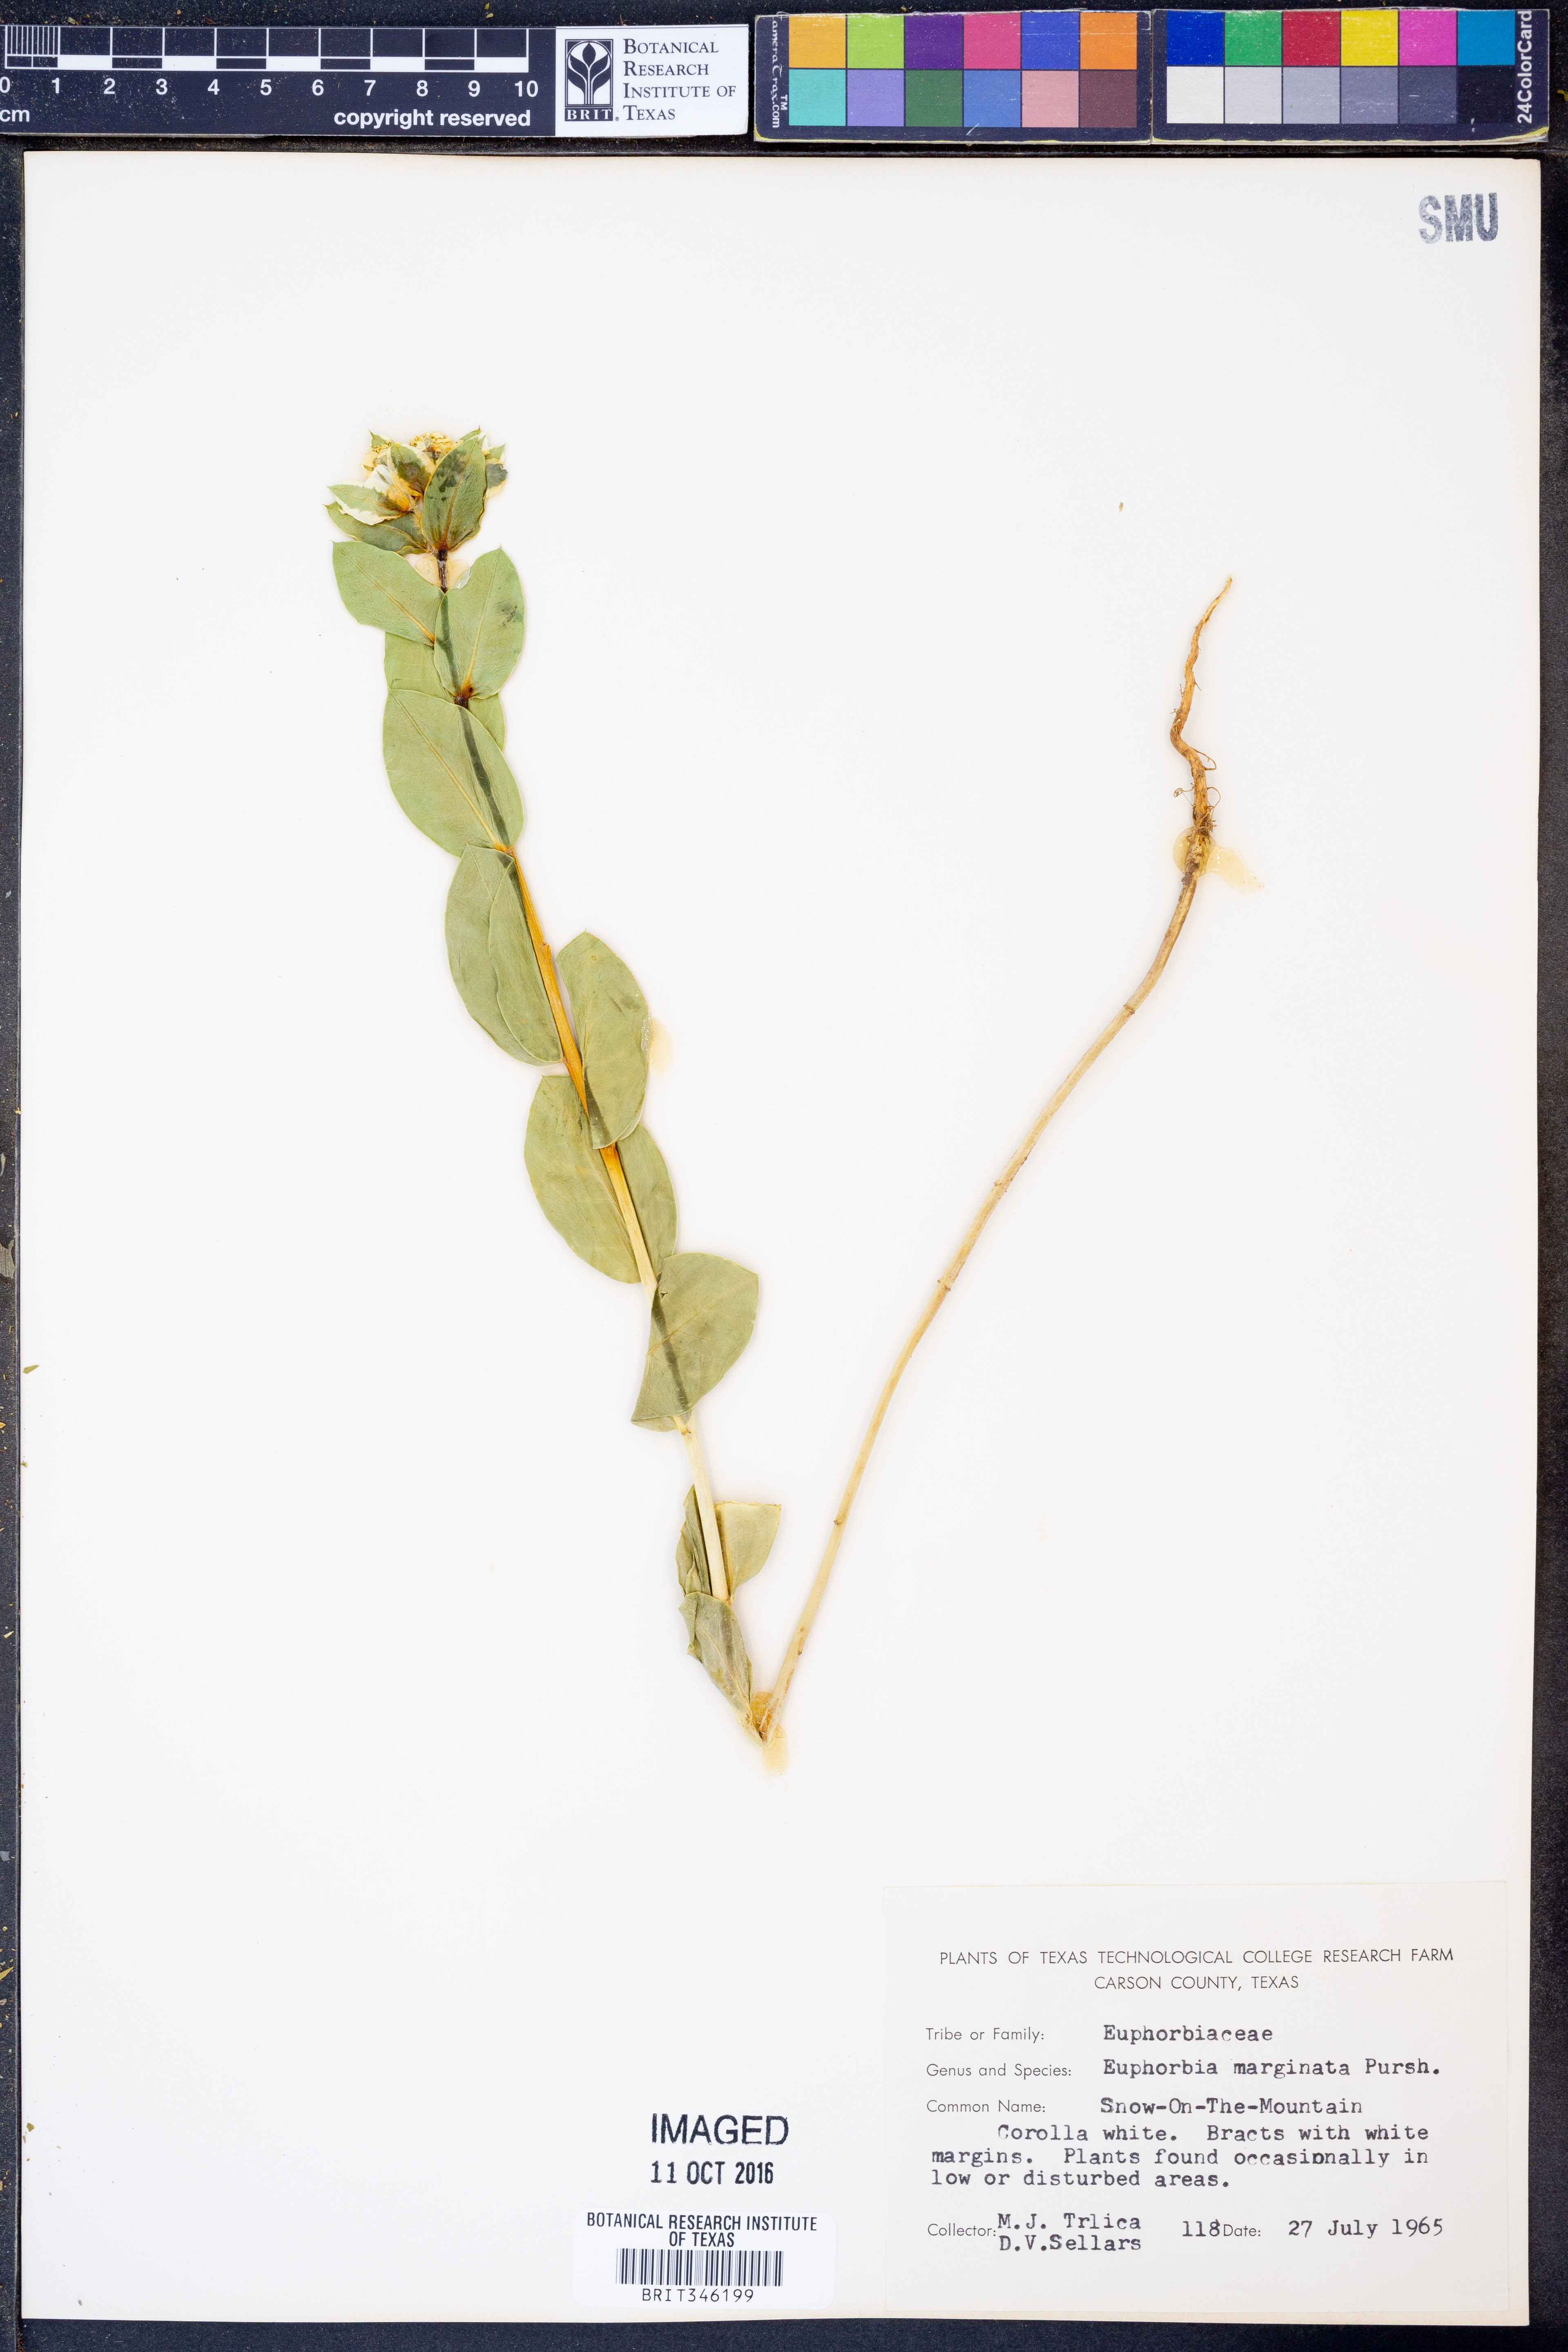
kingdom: Plantae
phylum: Tracheophyta
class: Magnoliopsida
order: Malpighiales
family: Euphorbiaceae
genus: Euphorbia
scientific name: Euphorbia marginata
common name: Ghostweed
